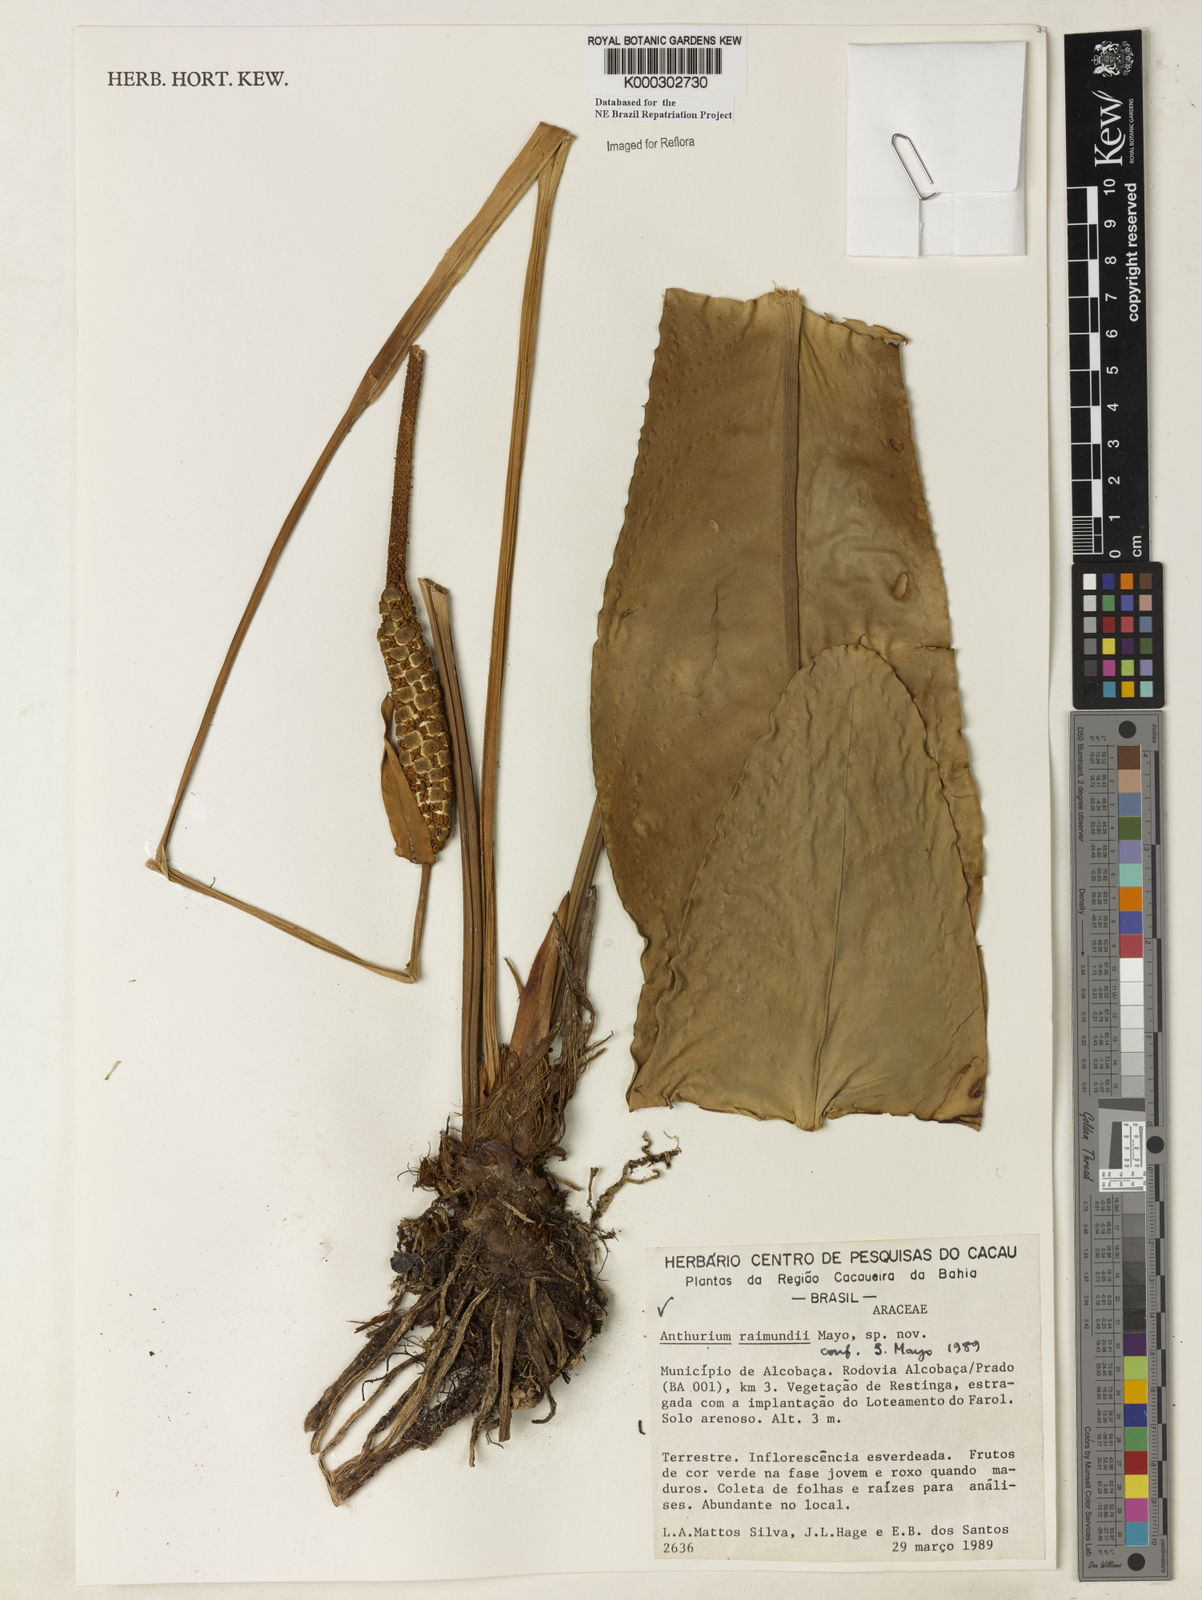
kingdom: Plantae
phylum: Tracheophyta
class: Liliopsida
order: Alismatales
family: Araceae
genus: Anthurium
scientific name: Anthurium raimundii
